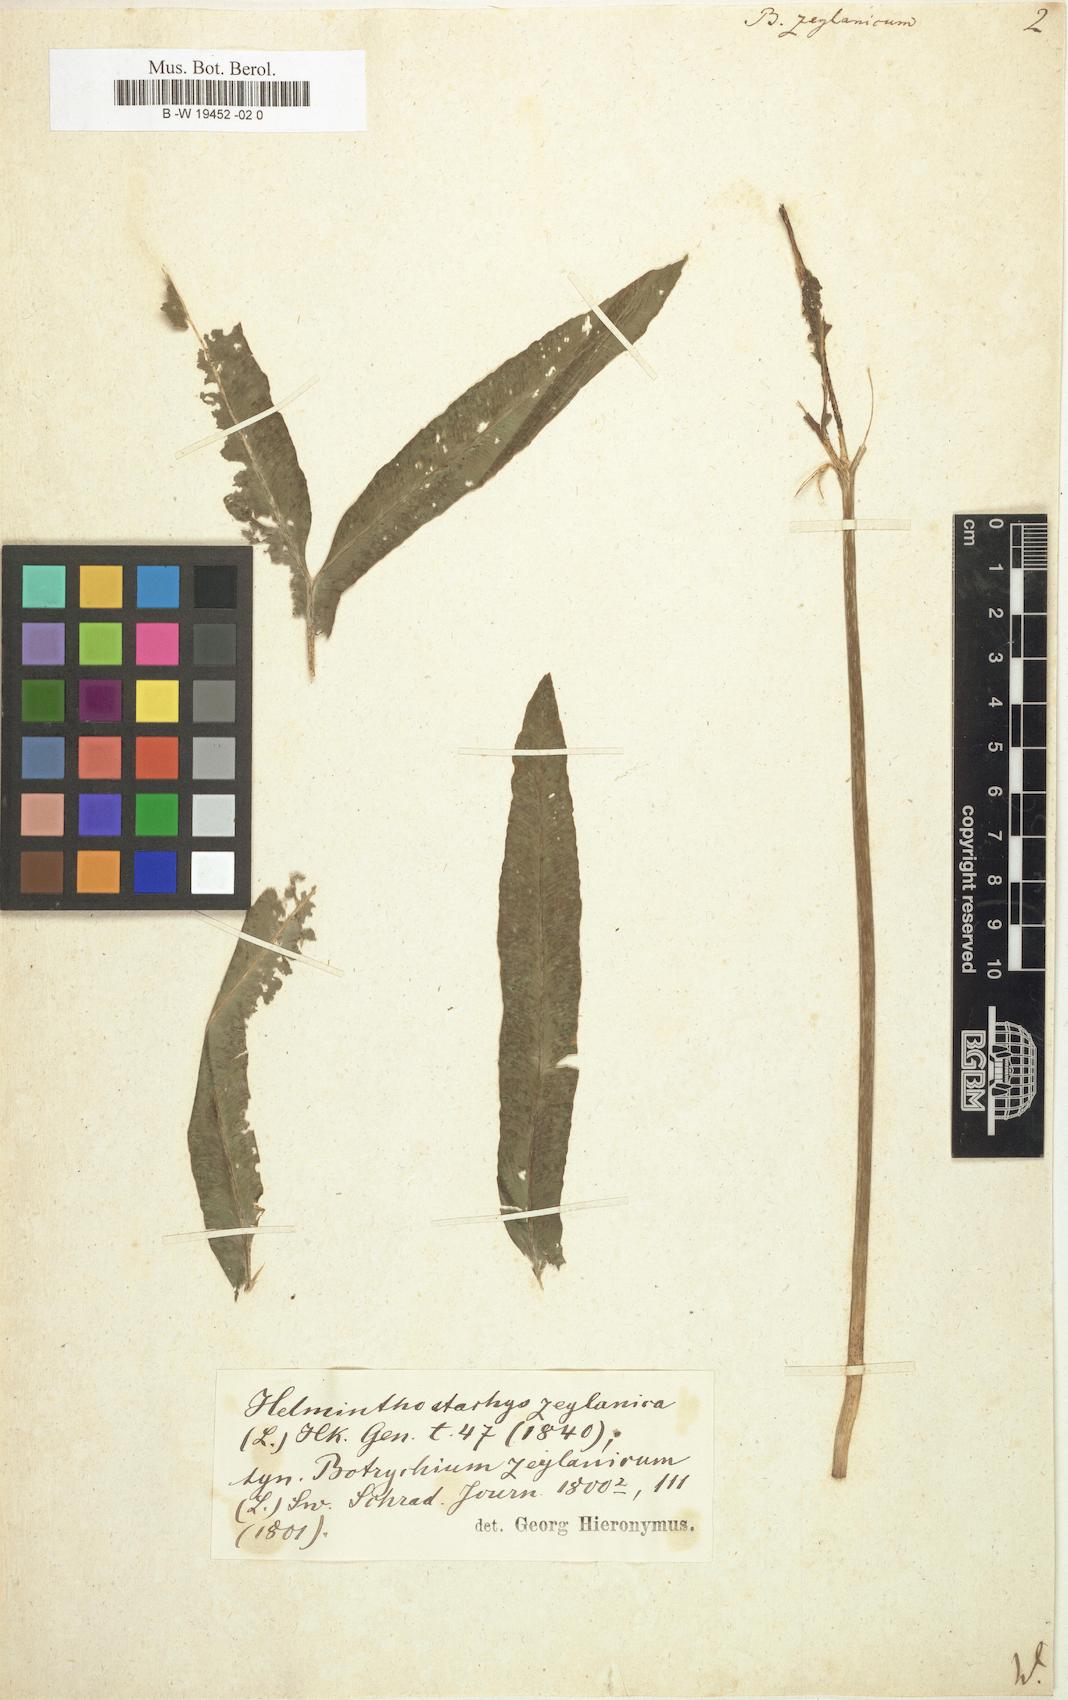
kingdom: Plantae
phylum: Tracheophyta
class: Polypodiopsida
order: Ophioglossales
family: Ophioglossaceae
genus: Helminthostachys
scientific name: Helminthostachys zeylanica
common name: Flowering fern
